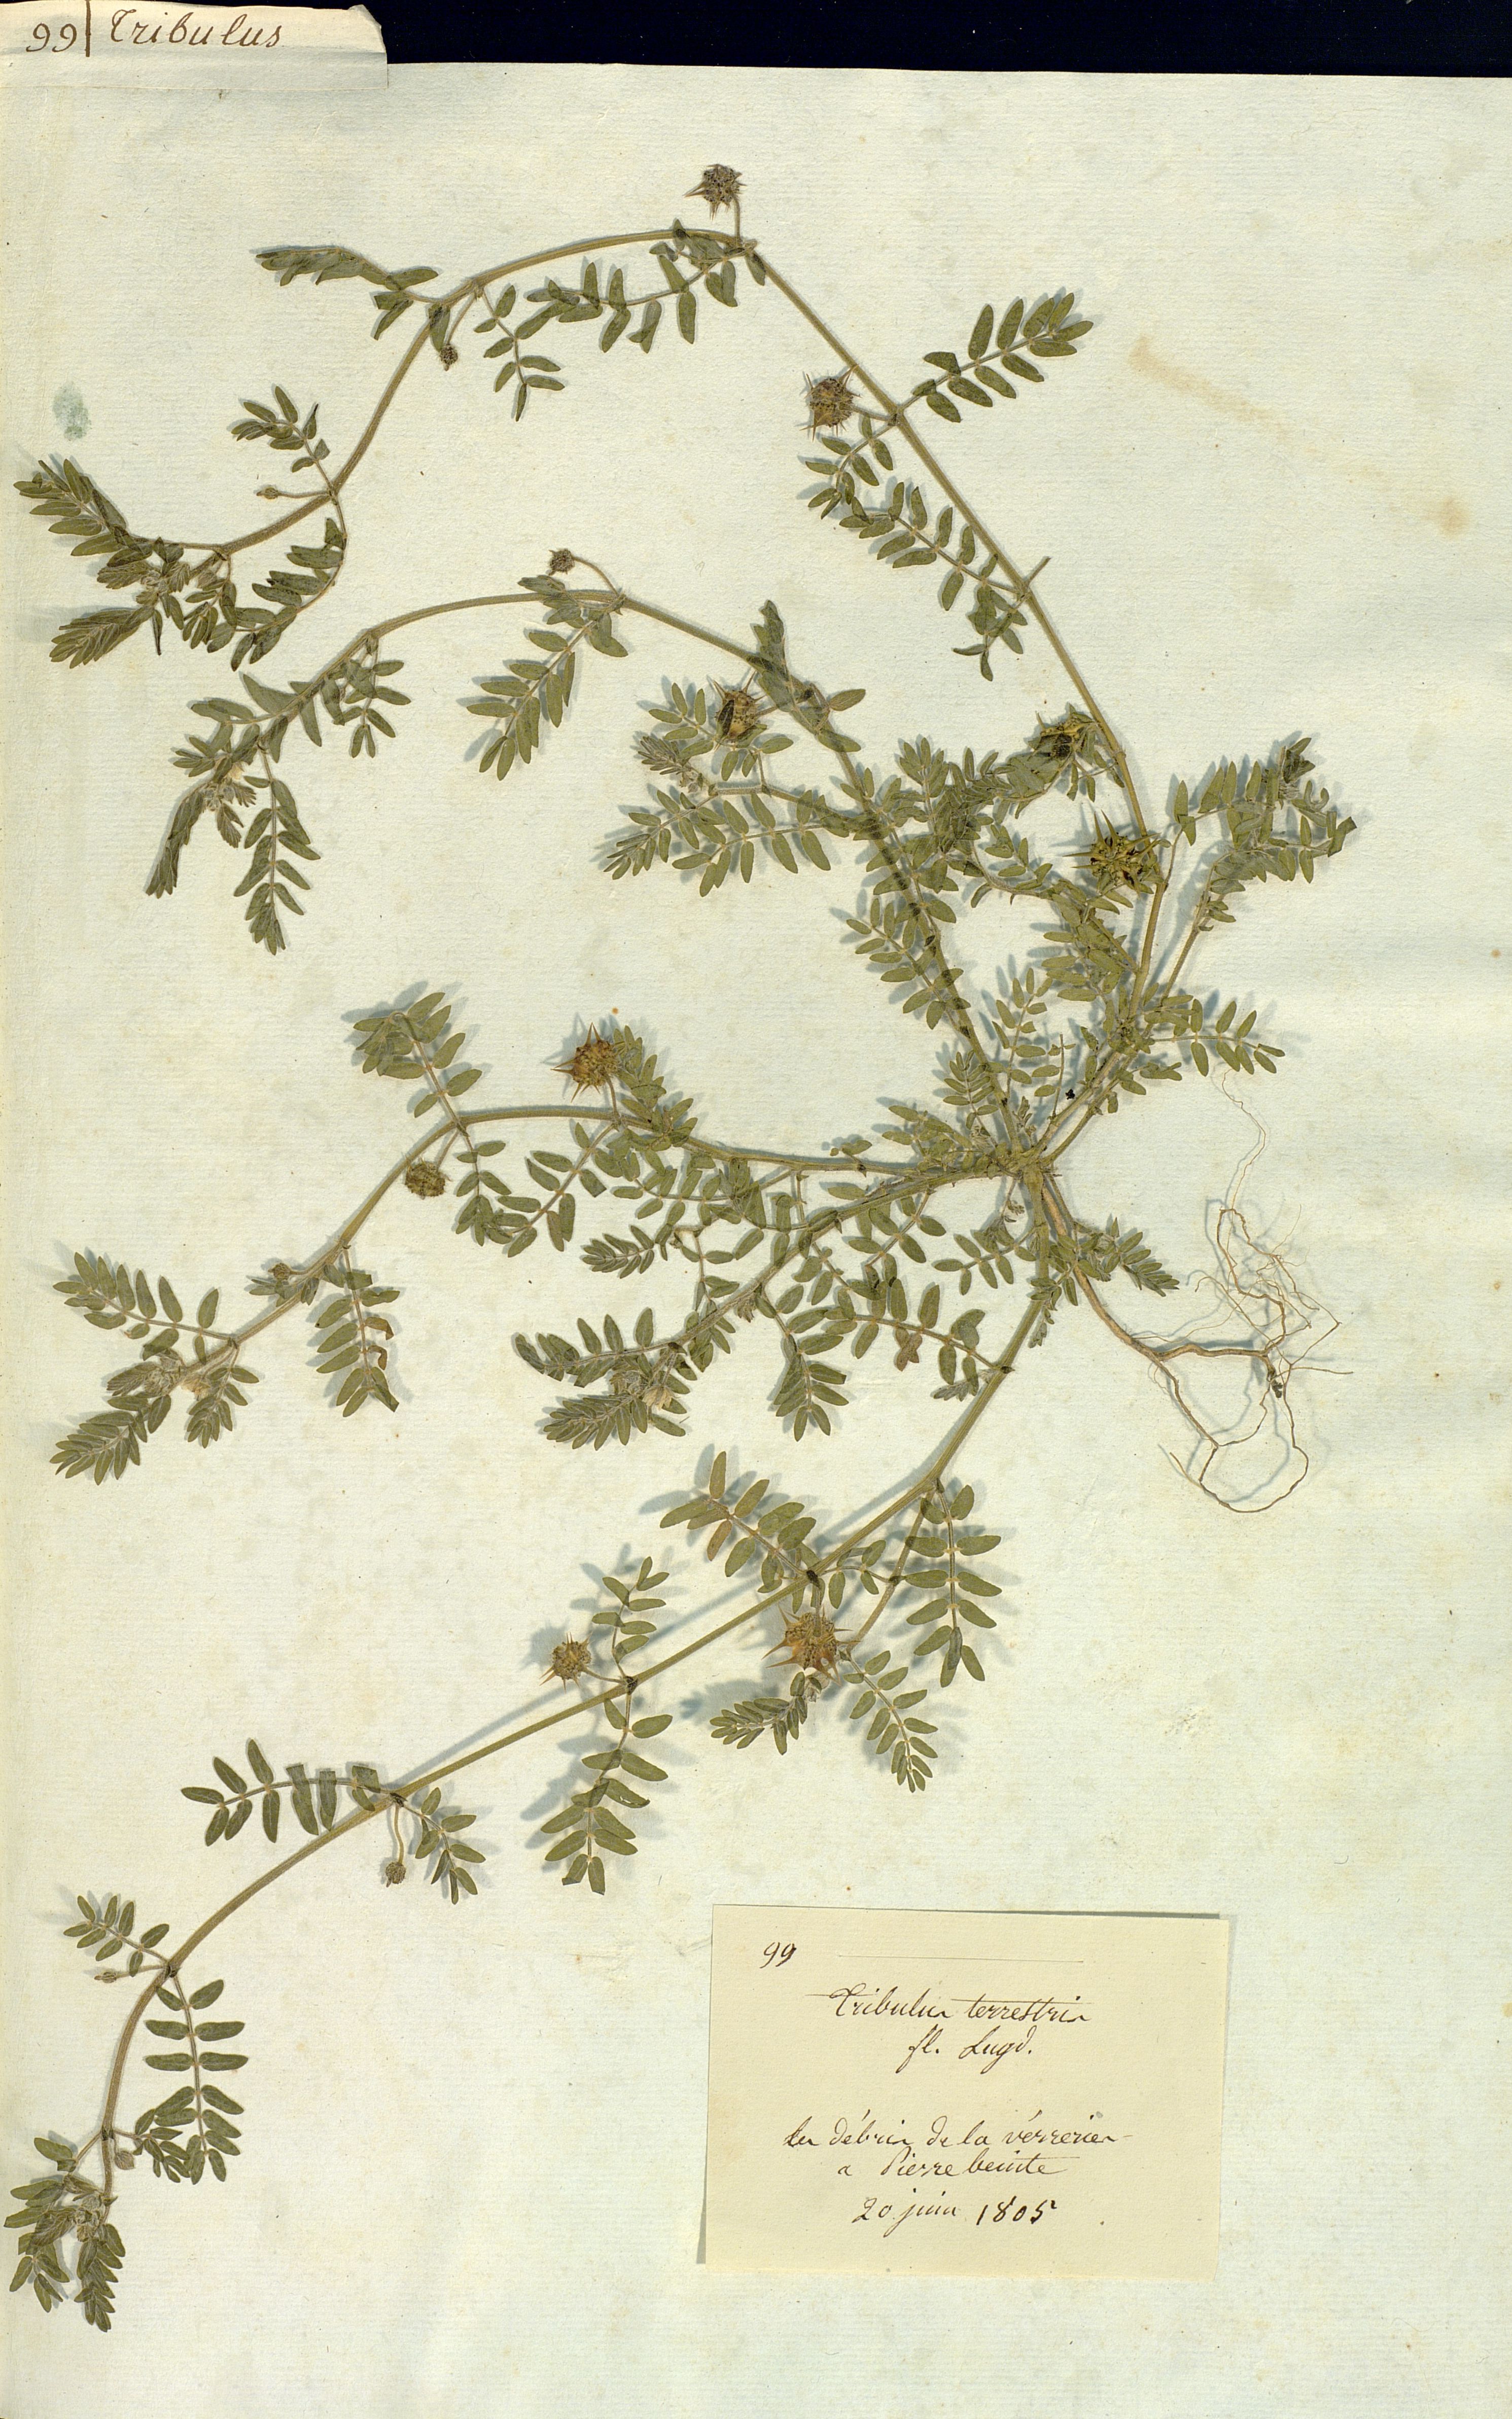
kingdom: Plantae
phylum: Tracheophyta
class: Magnoliopsida
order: Zygophyllales
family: Zygophyllaceae
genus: Tribulus
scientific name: Tribulus terrestris
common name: Puncturevine
